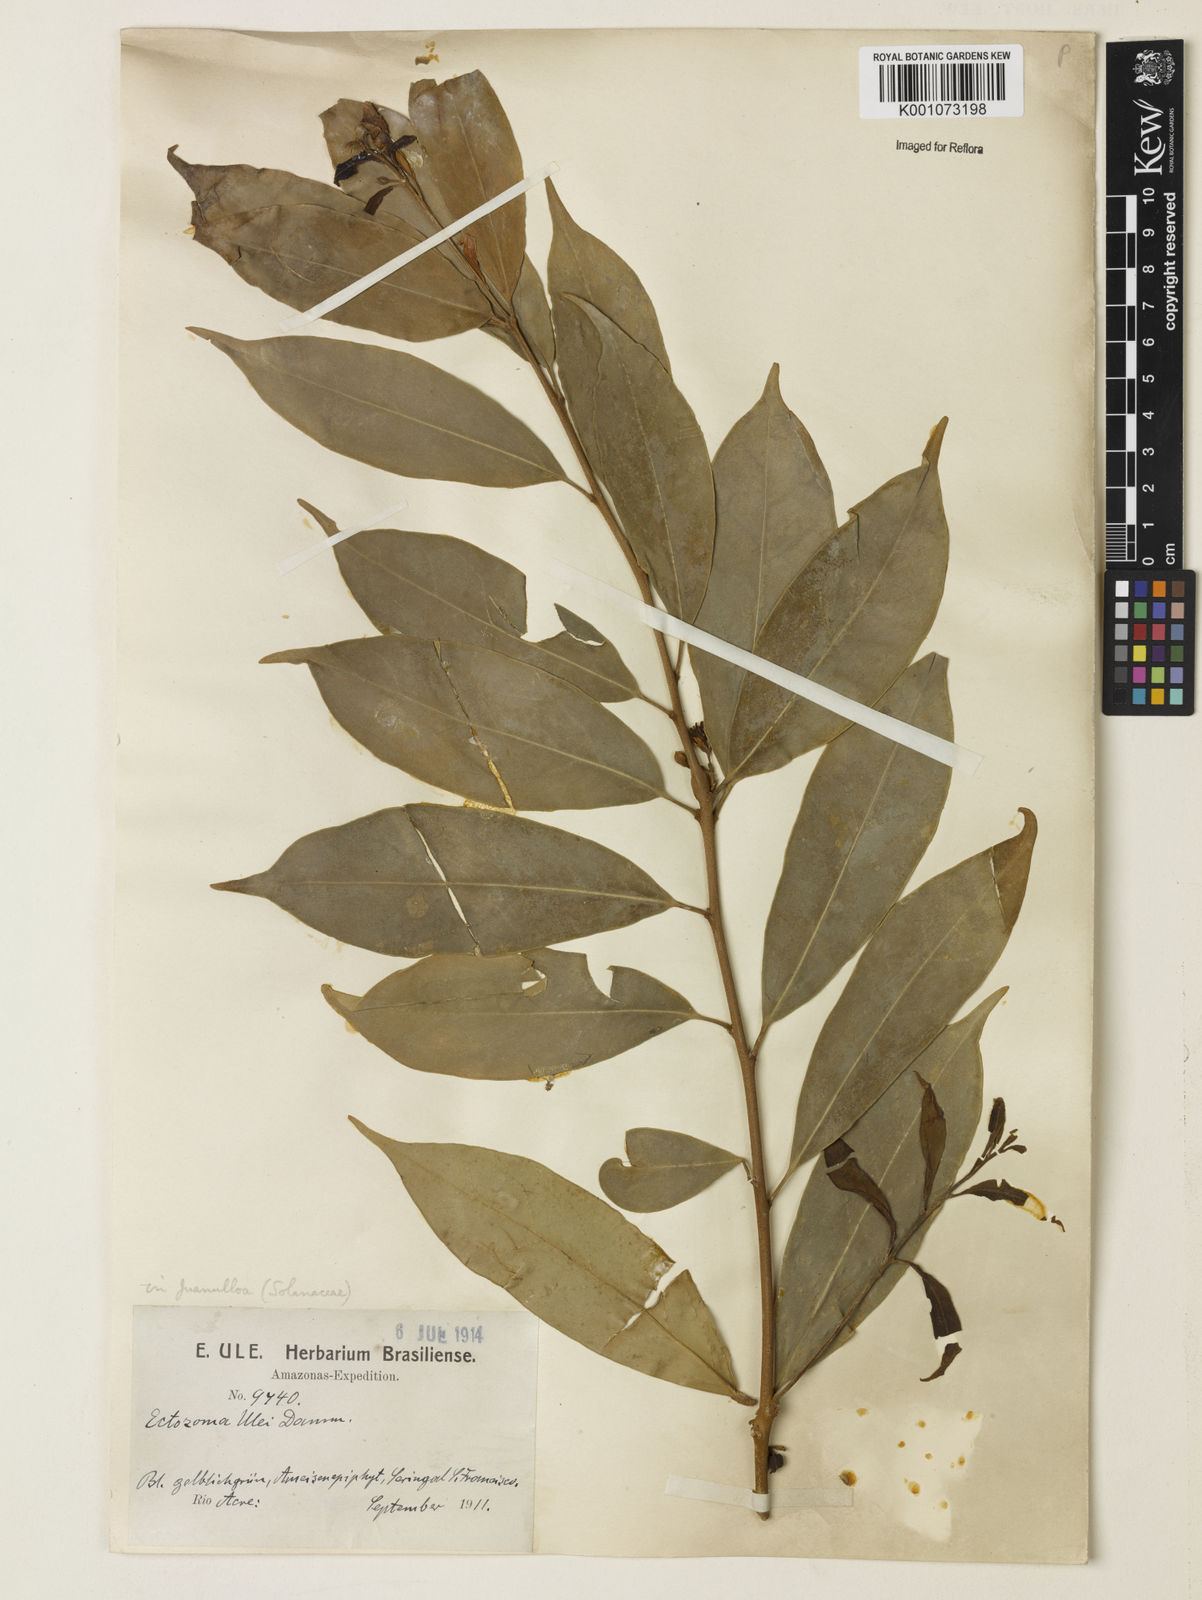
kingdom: Plantae
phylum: Tracheophyta
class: Magnoliopsida
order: Solanales
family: Solanaceae
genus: Juanulloa
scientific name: Juanulloa
